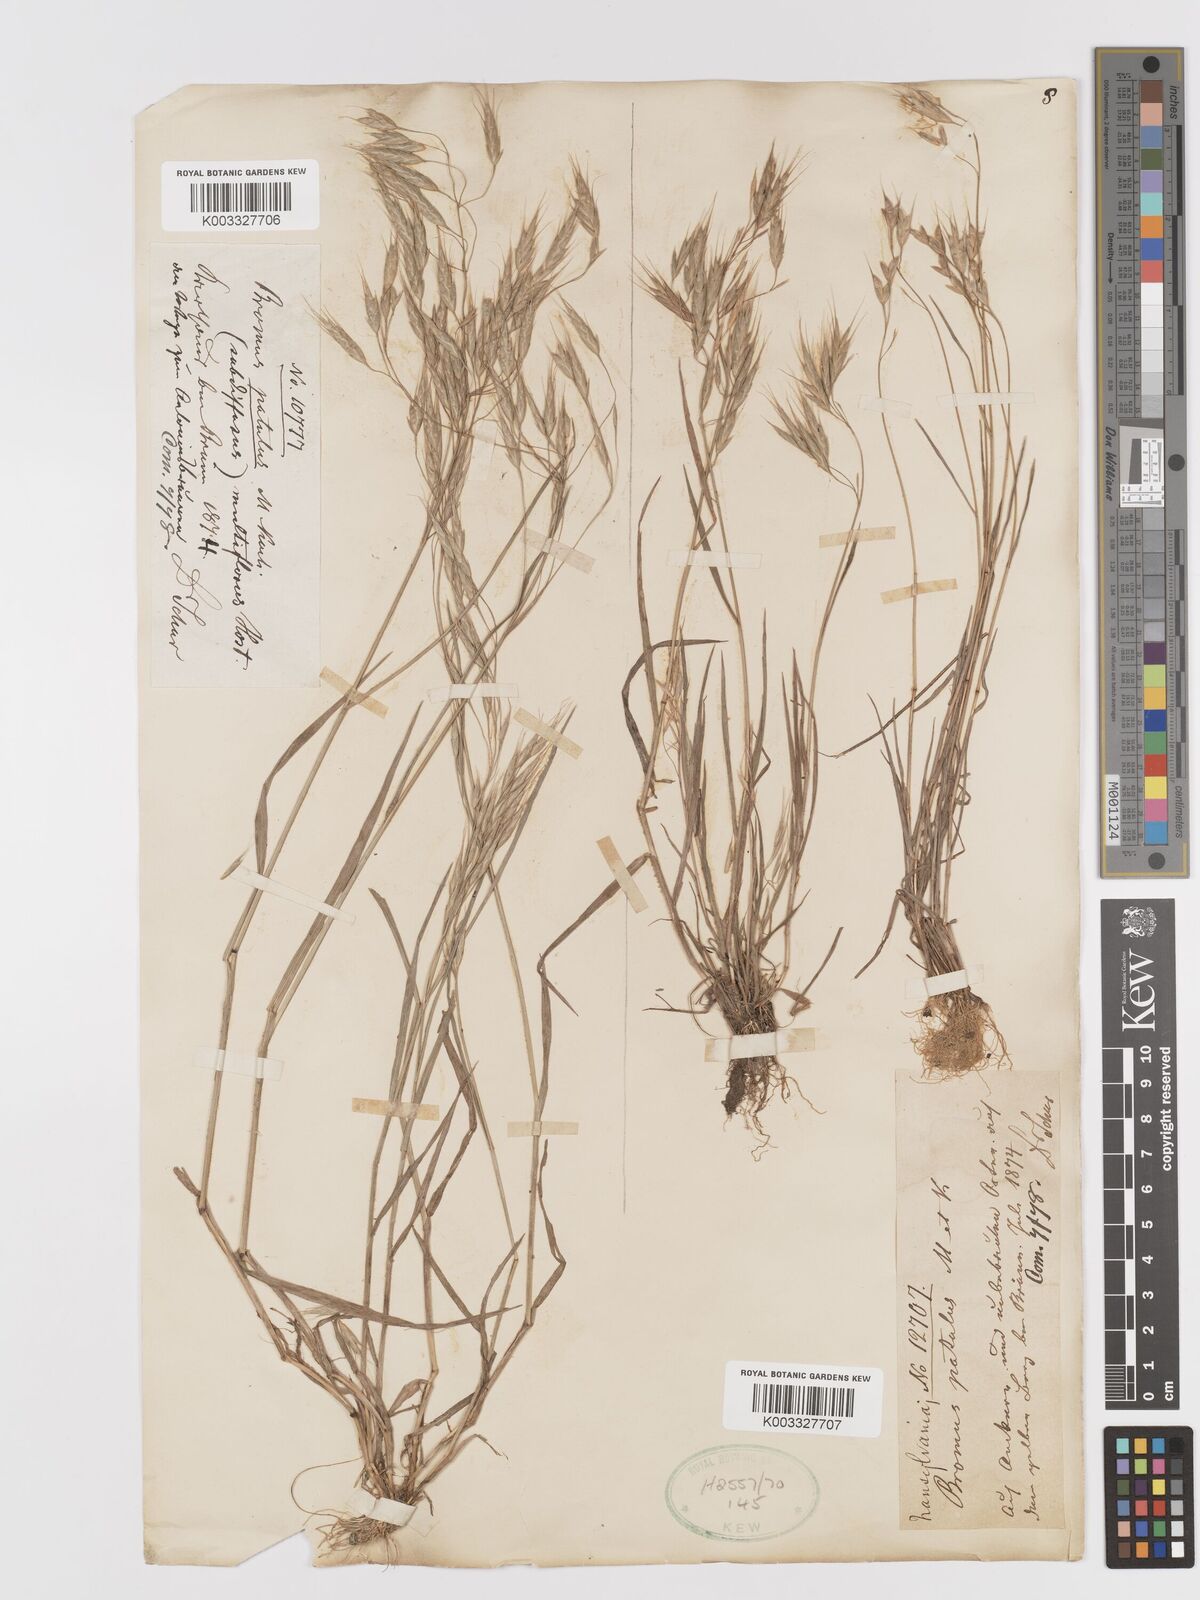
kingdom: Plantae
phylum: Tracheophyta
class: Liliopsida
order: Poales
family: Poaceae
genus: Bromus
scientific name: Bromus japonicus
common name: Japanese brome
